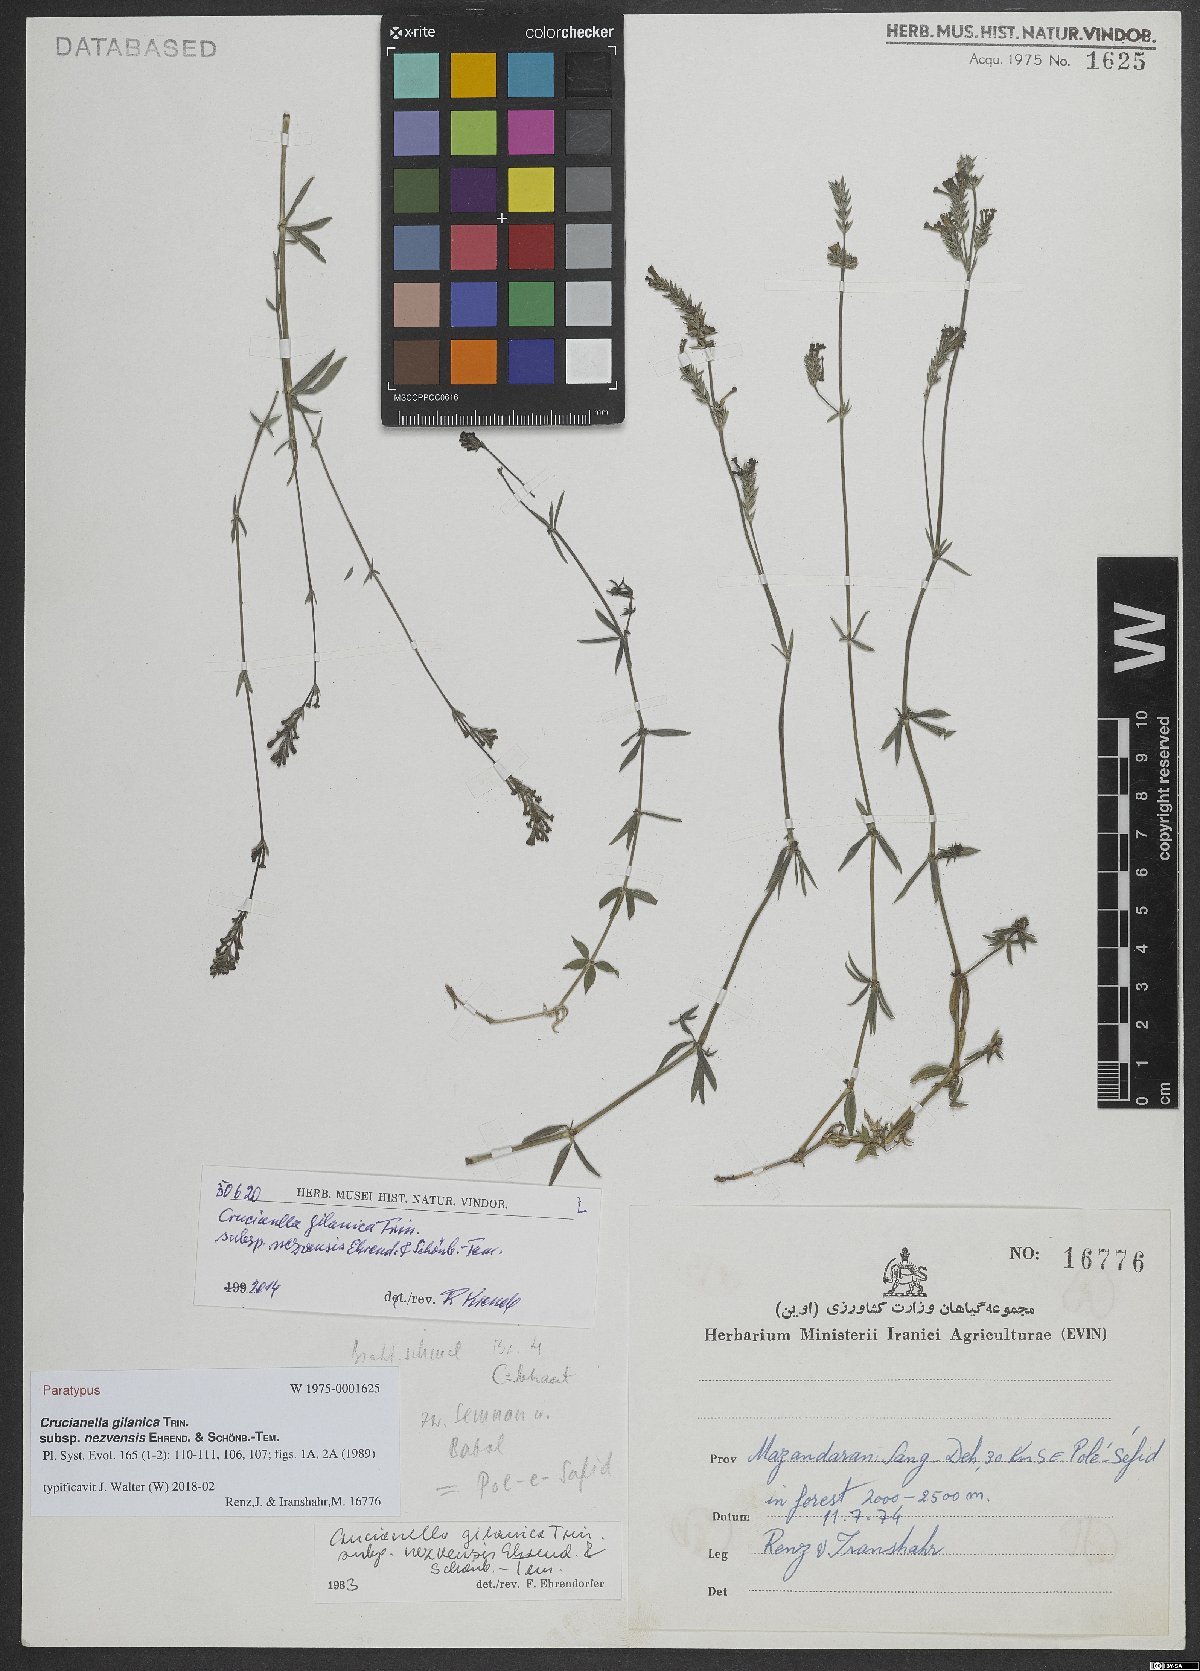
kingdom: Plantae
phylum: Tracheophyta
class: Magnoliopsida
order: Gentianales
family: Rubiaceae
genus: Crucianella
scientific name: Crucianella gilanica
